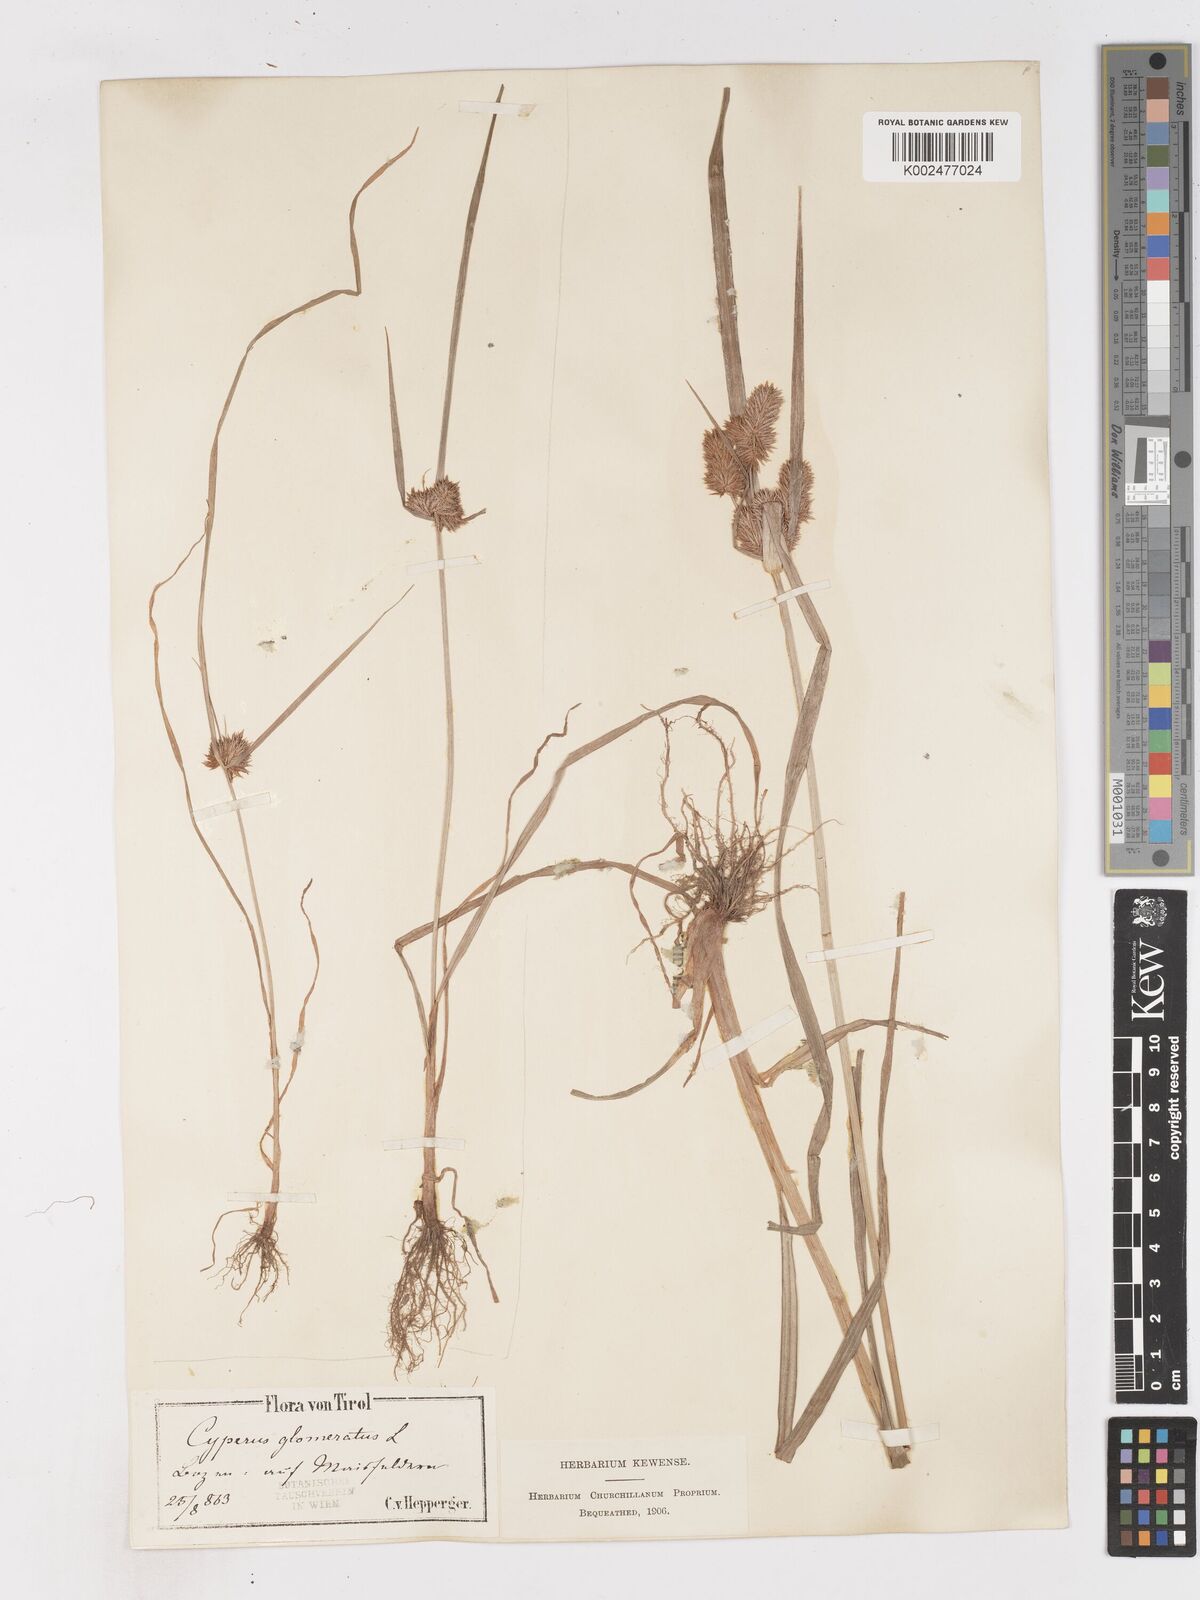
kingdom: Plantae
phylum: Tracheophyta
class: Liliopsida
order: Poales
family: Cyperaceae
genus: Cyperus
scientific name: Cyperus glomeratus
